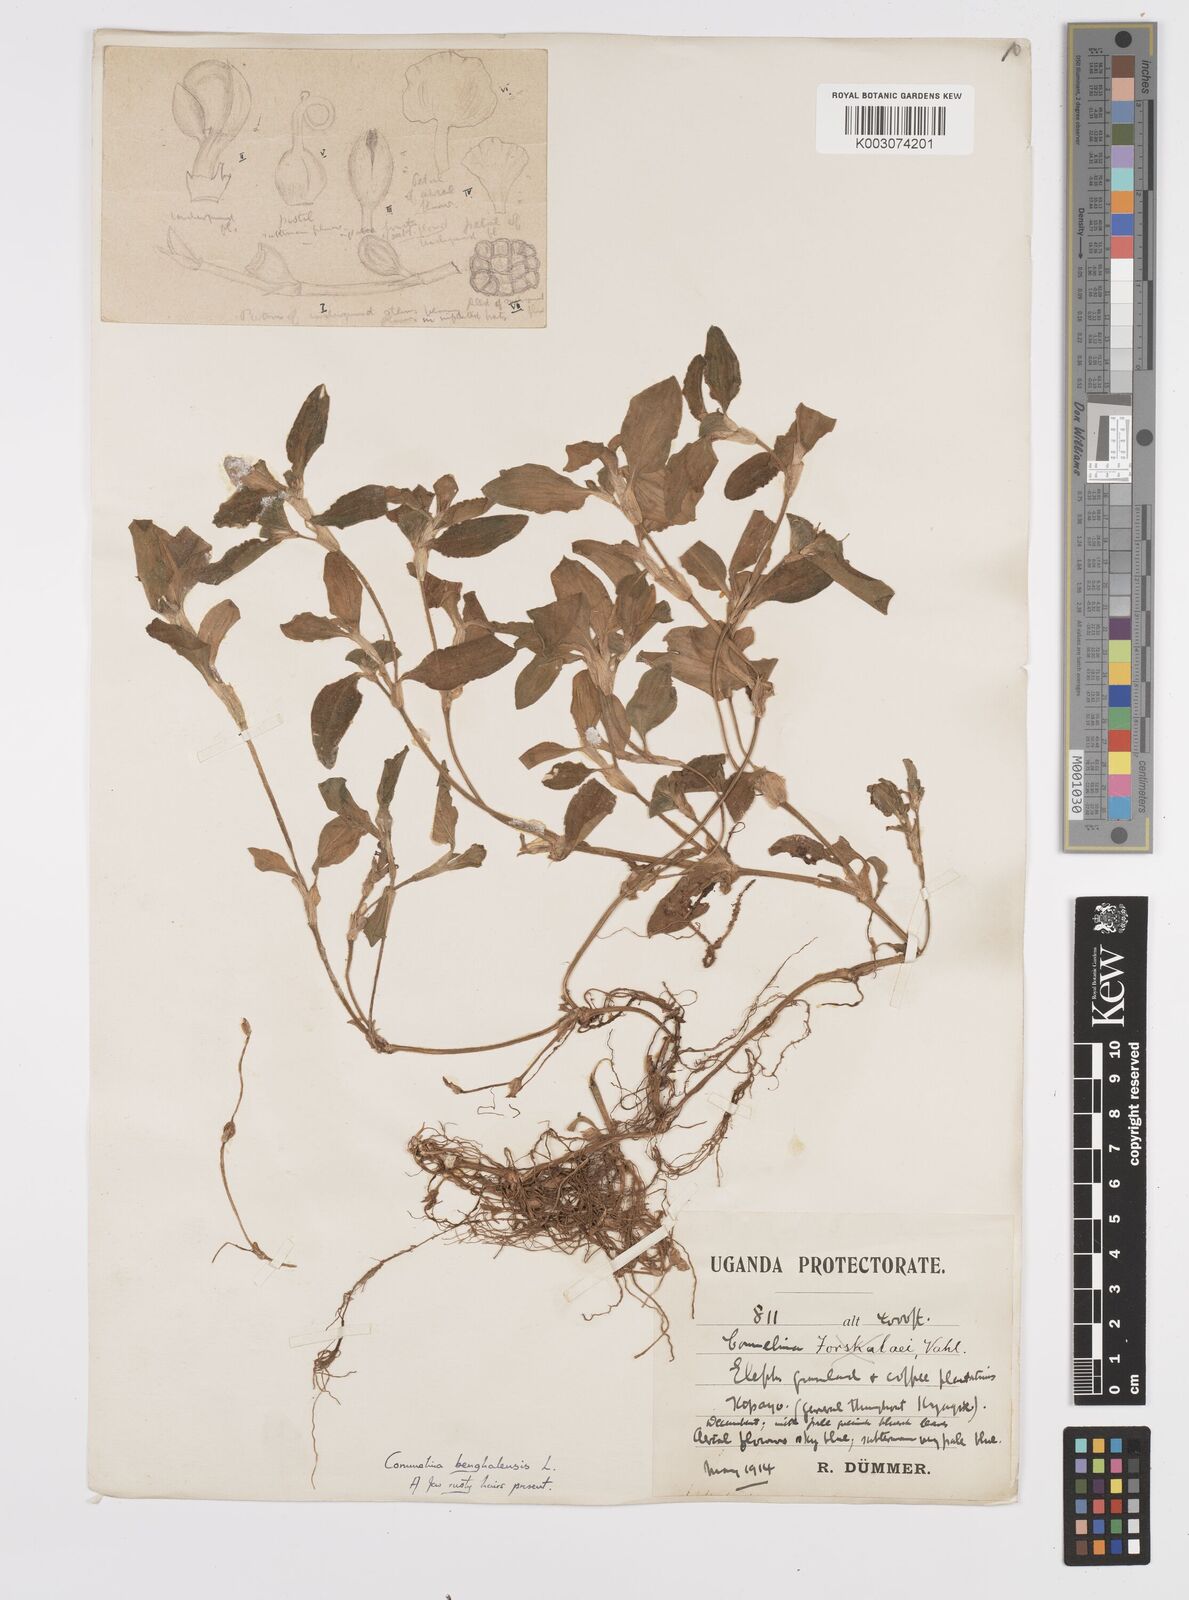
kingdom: Plantae
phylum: Tracheophyta
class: Liliopsida
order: Commelinales
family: Commelinaceae
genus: Commelina
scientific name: Commelina benghalensis
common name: Jio
